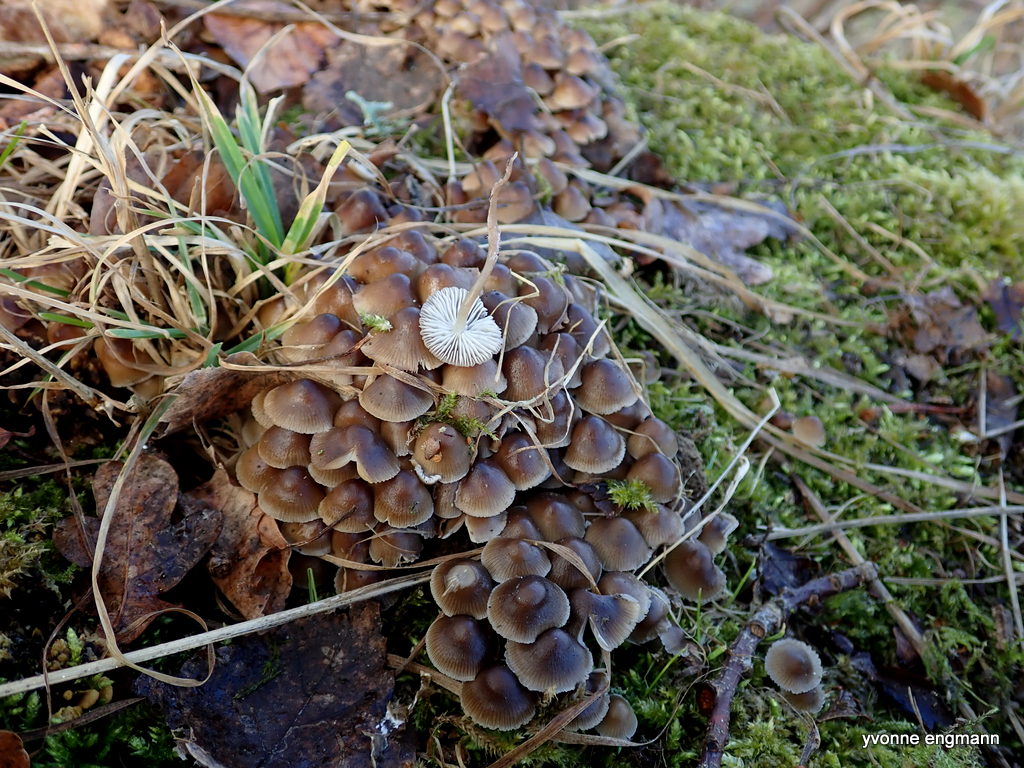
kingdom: Fungi
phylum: Basidiomycota
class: Agaricomycetes
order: Agaricales
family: Mycenaceae
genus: Mycena
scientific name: Mycena tintinnabulum
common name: vinter-huesvamp
